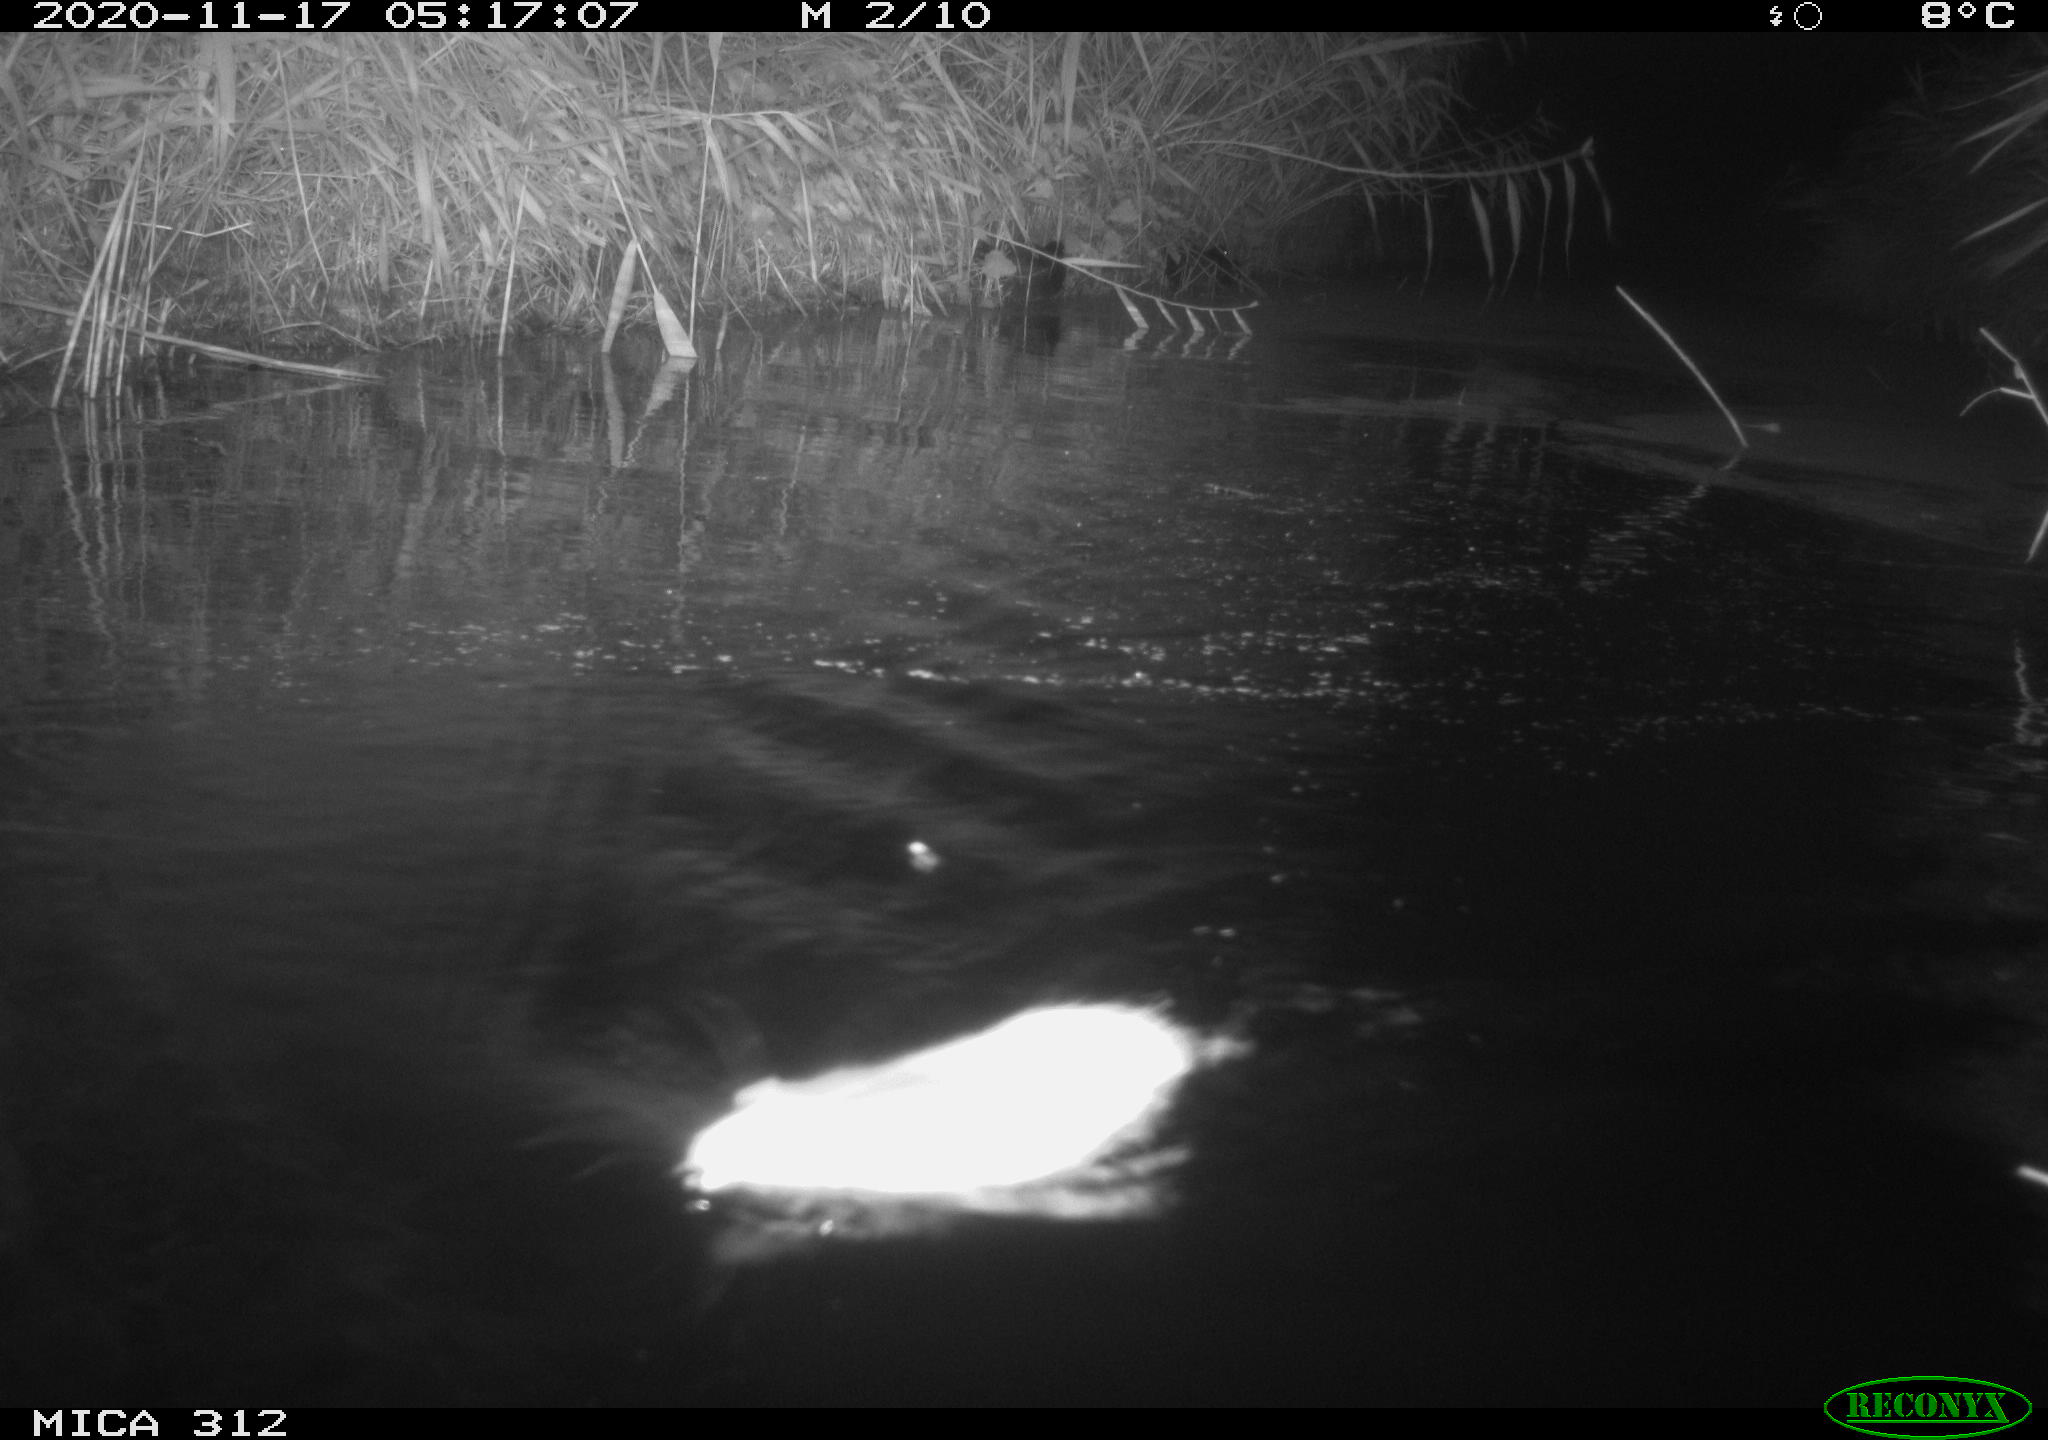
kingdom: Animalia
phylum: Chordata
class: Aves
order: Gruiformes
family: Rallidae
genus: Fulica
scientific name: Fulica atra
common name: Eurasian coot
